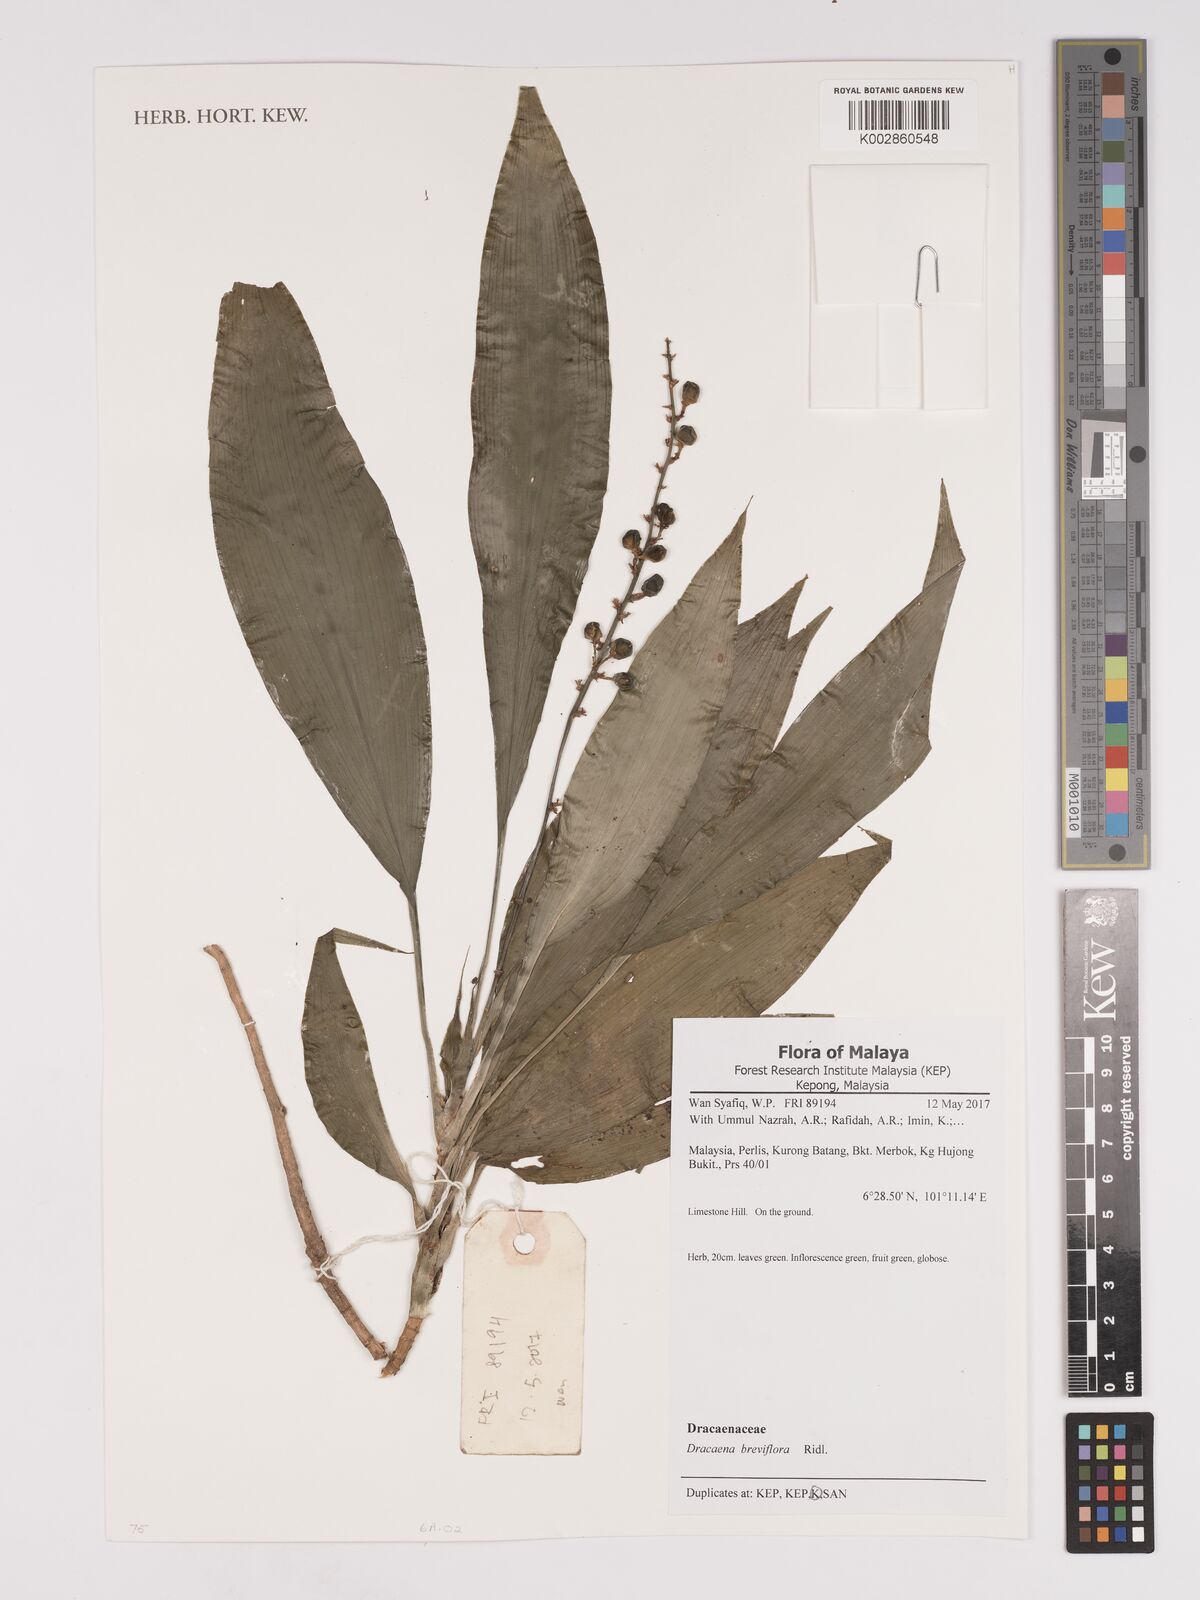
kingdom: Plantae
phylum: Tracheophyta
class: Liliopsida
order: Asparagales
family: Asparagaceae
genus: Dracaena
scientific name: Dracaena breviflora
